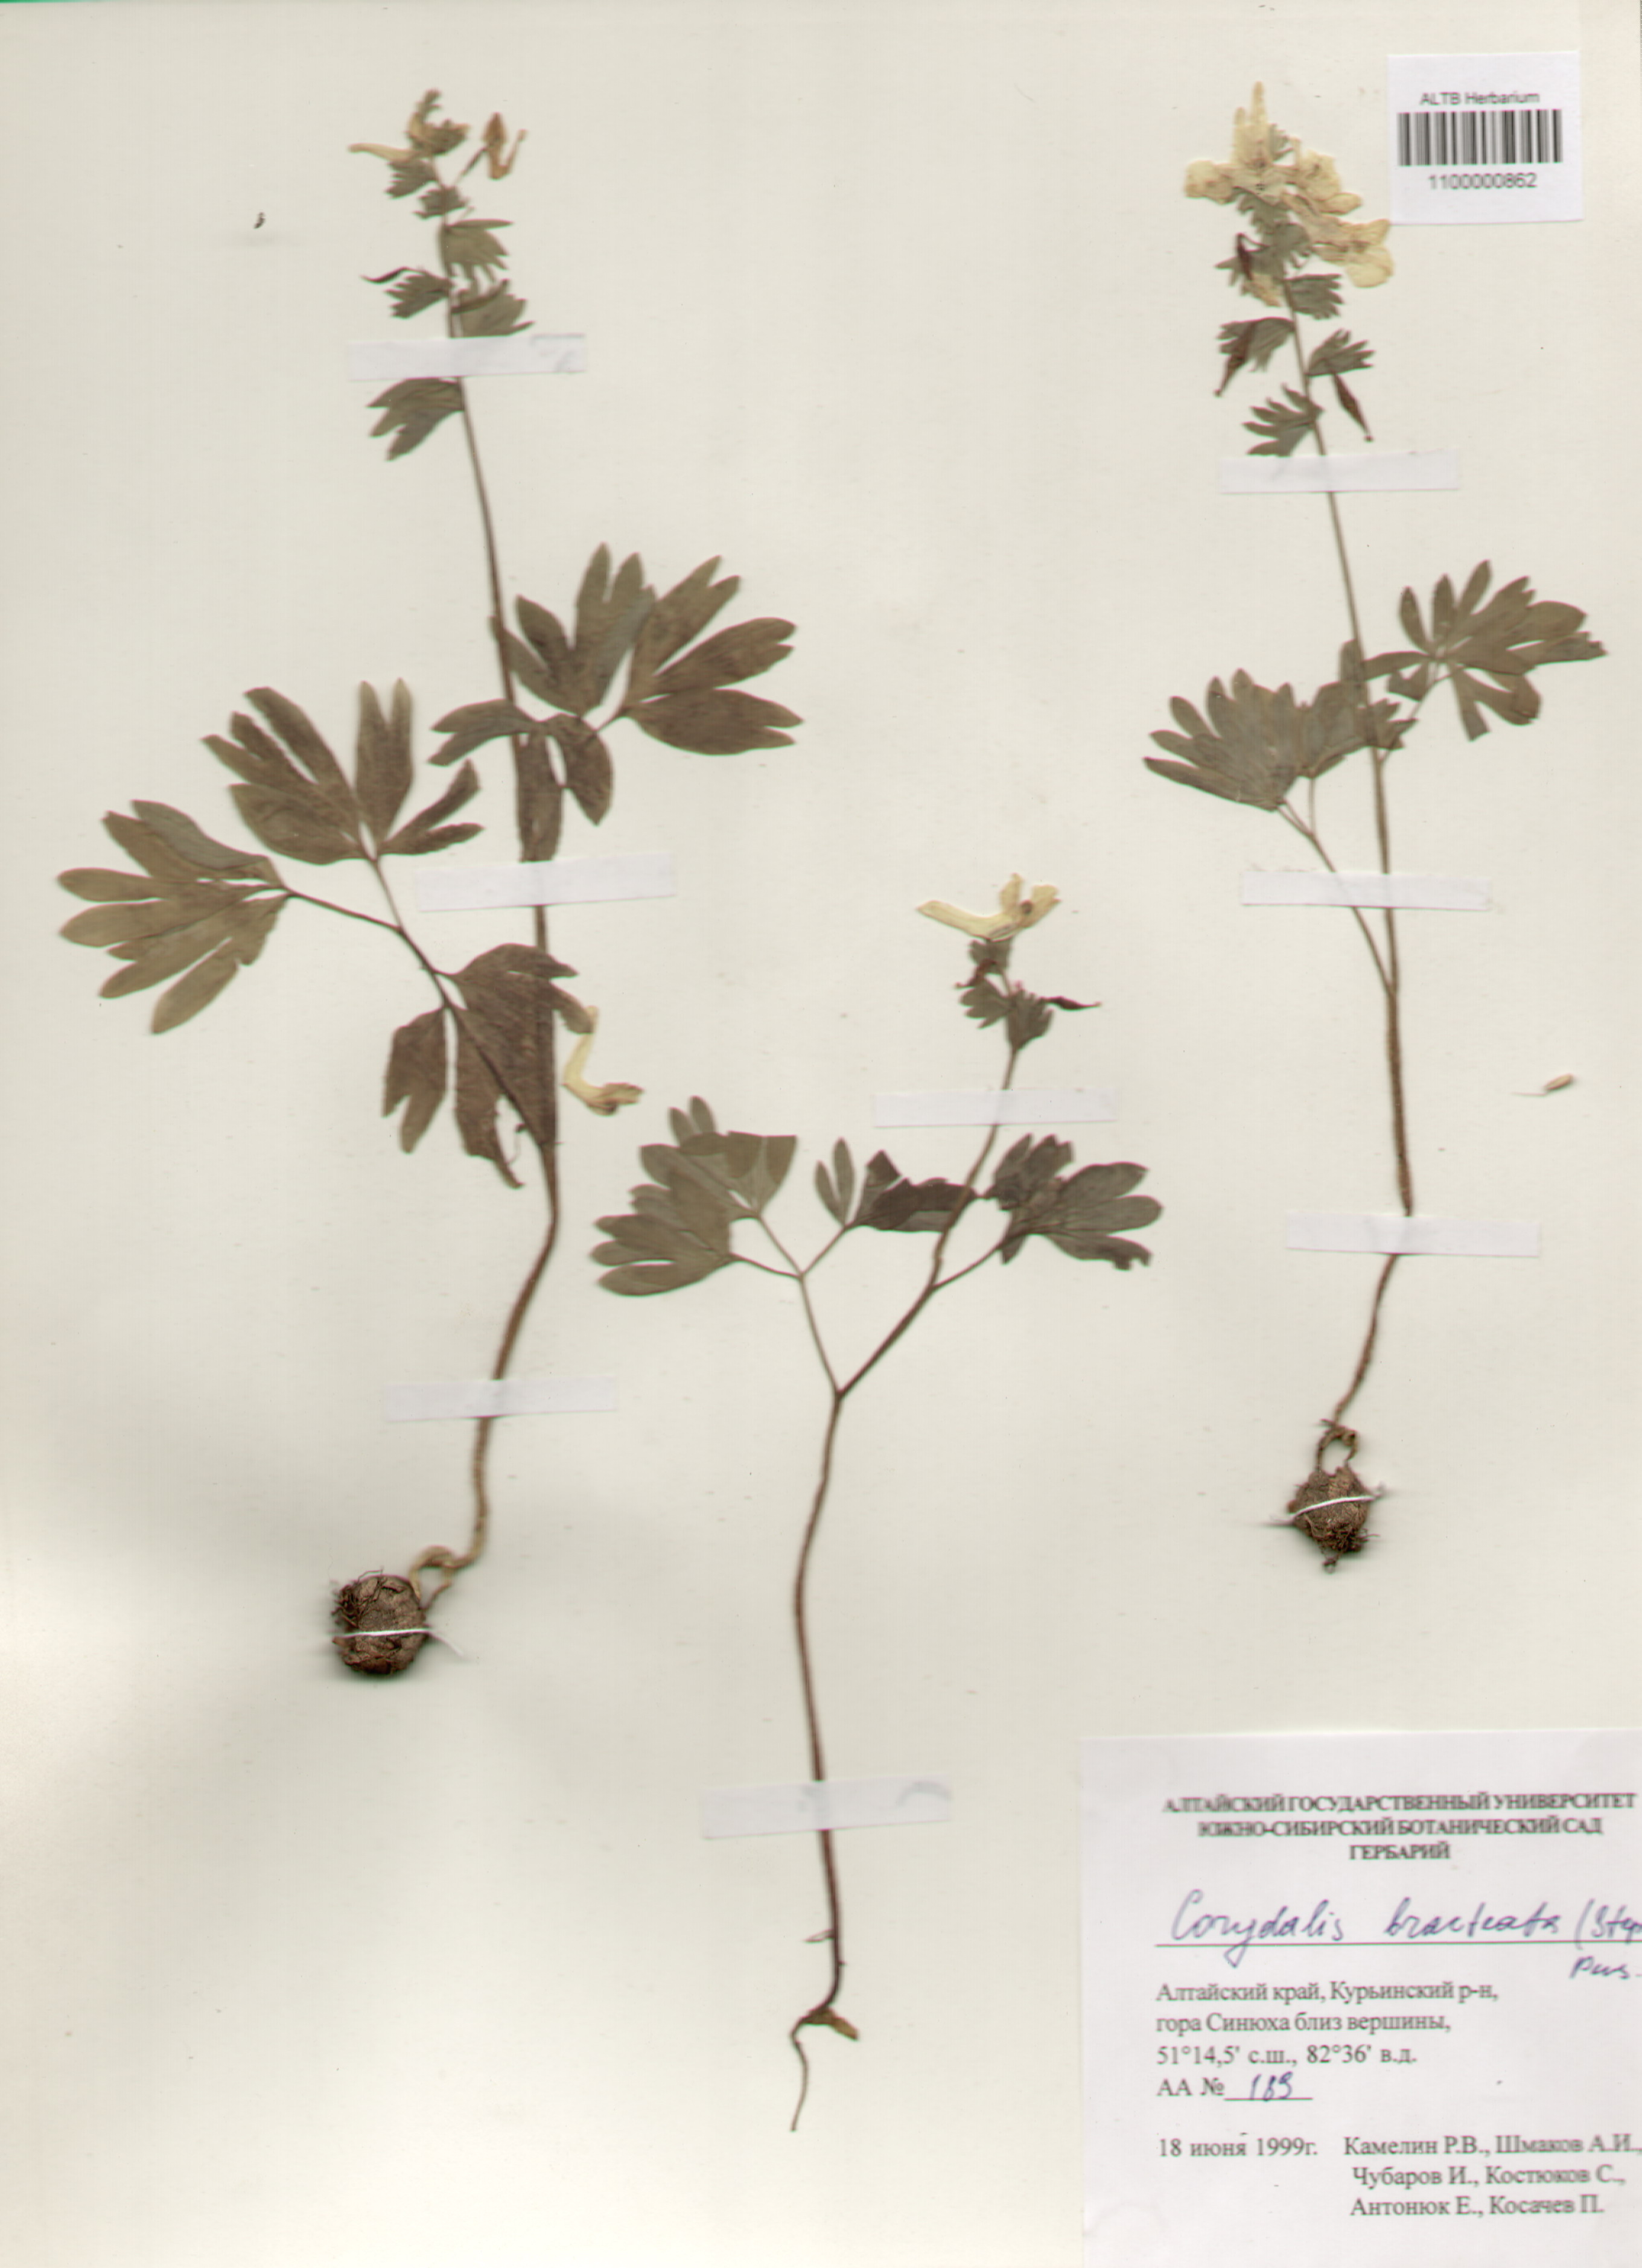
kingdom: Plantae
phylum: Tracheophyta
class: Magnoliopsida
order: Ranunculales
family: Papaveraceae
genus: Corydalis
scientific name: Corydalis bracteata
